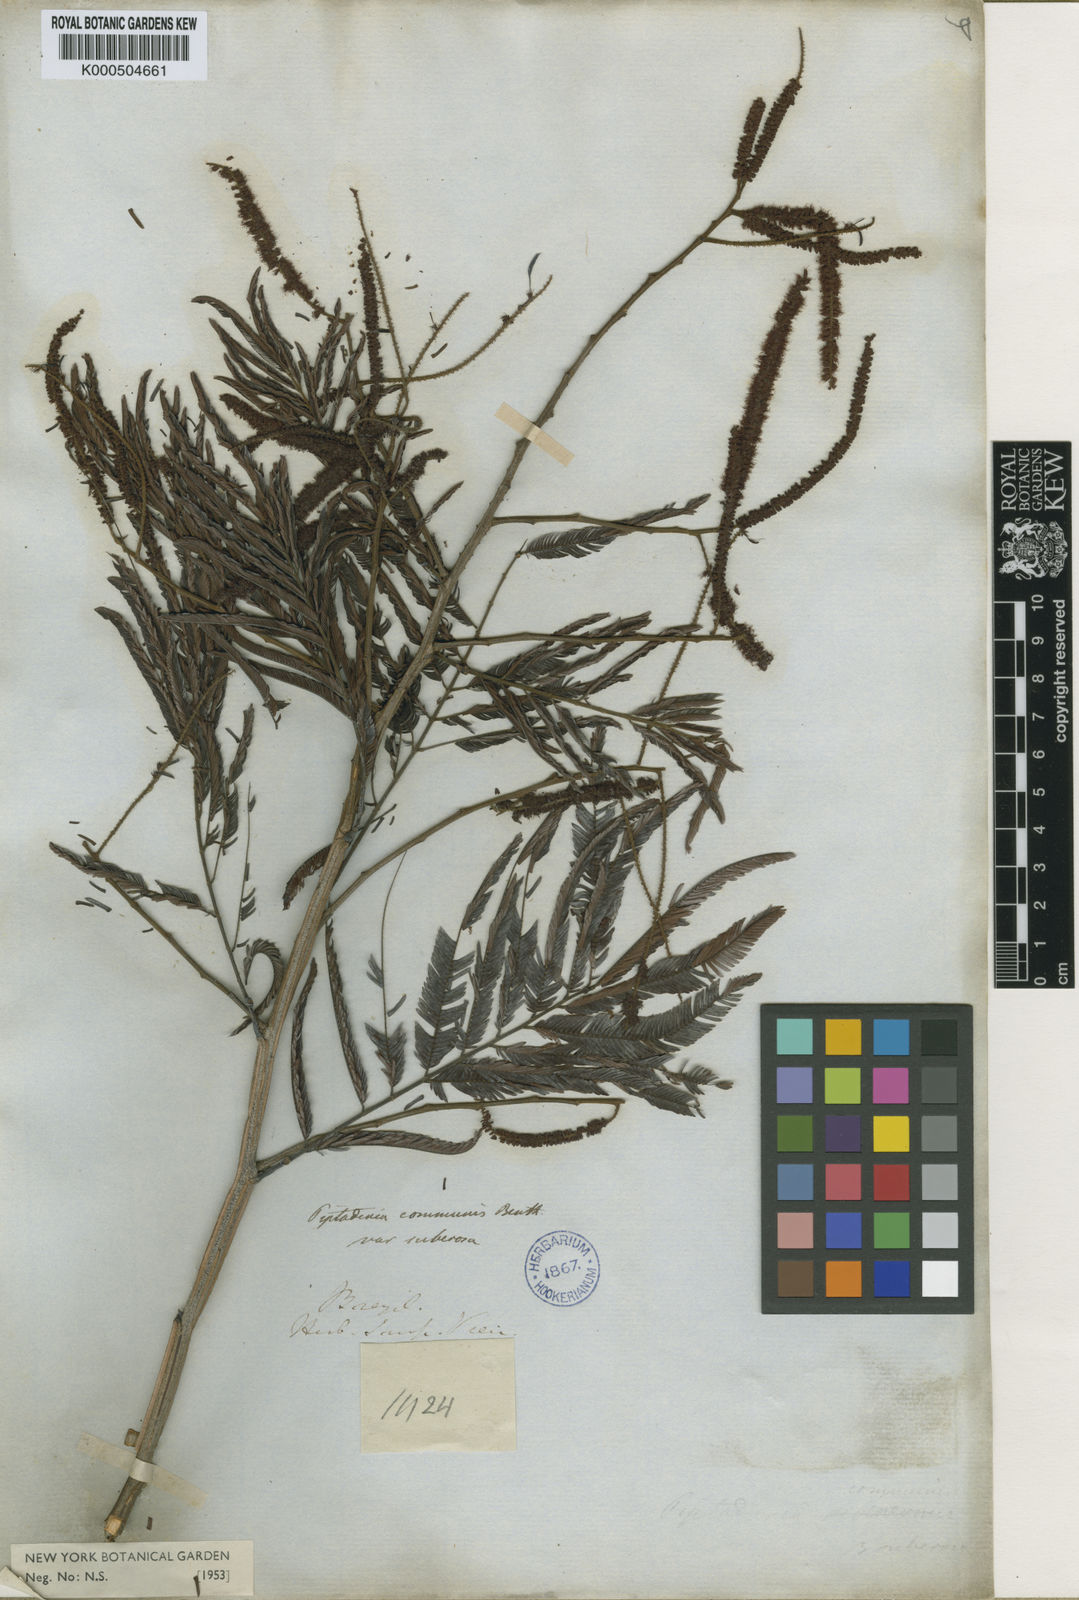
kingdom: Plantae
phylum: Tracheophyta
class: Magnoliopsida
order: Fabales
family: Fabaceae
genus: Piptadenia
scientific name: Piptadenia gonoacantha
